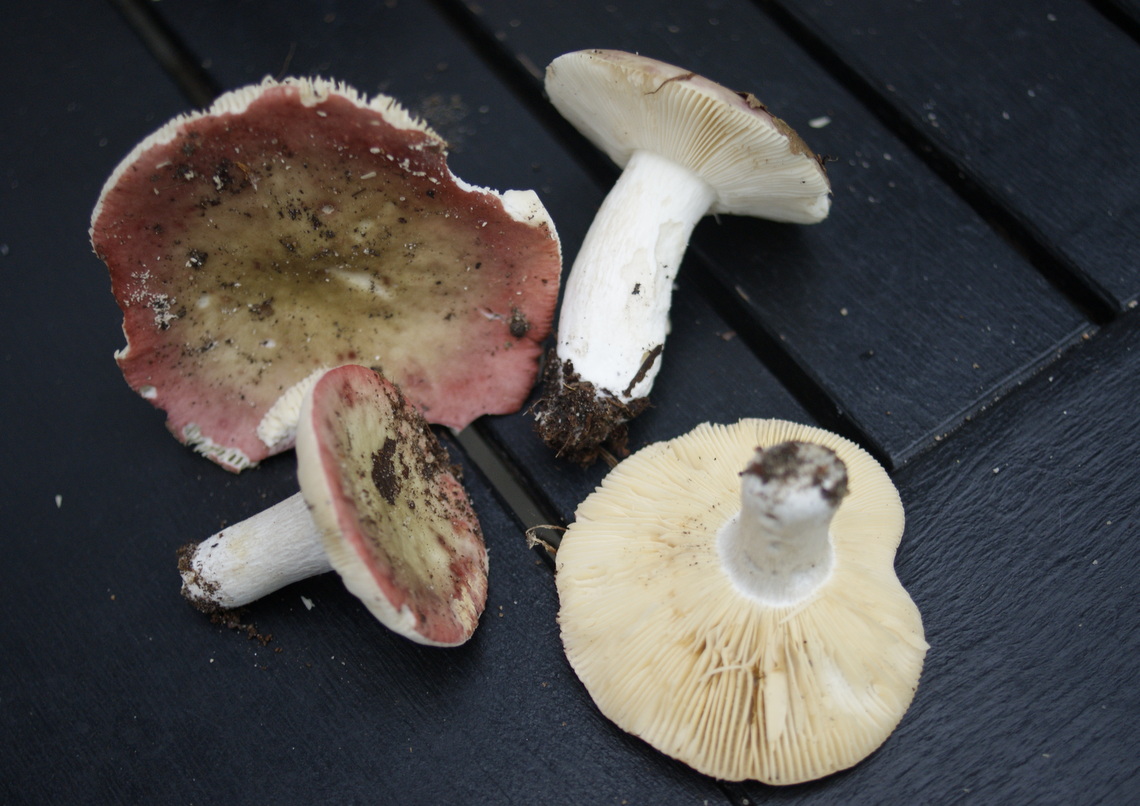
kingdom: Fungi
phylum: Basidiomycota
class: Agaricomycetes
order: Russulales
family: Russulaceae
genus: Russula
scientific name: Russula depallens
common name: falmende skørhat
